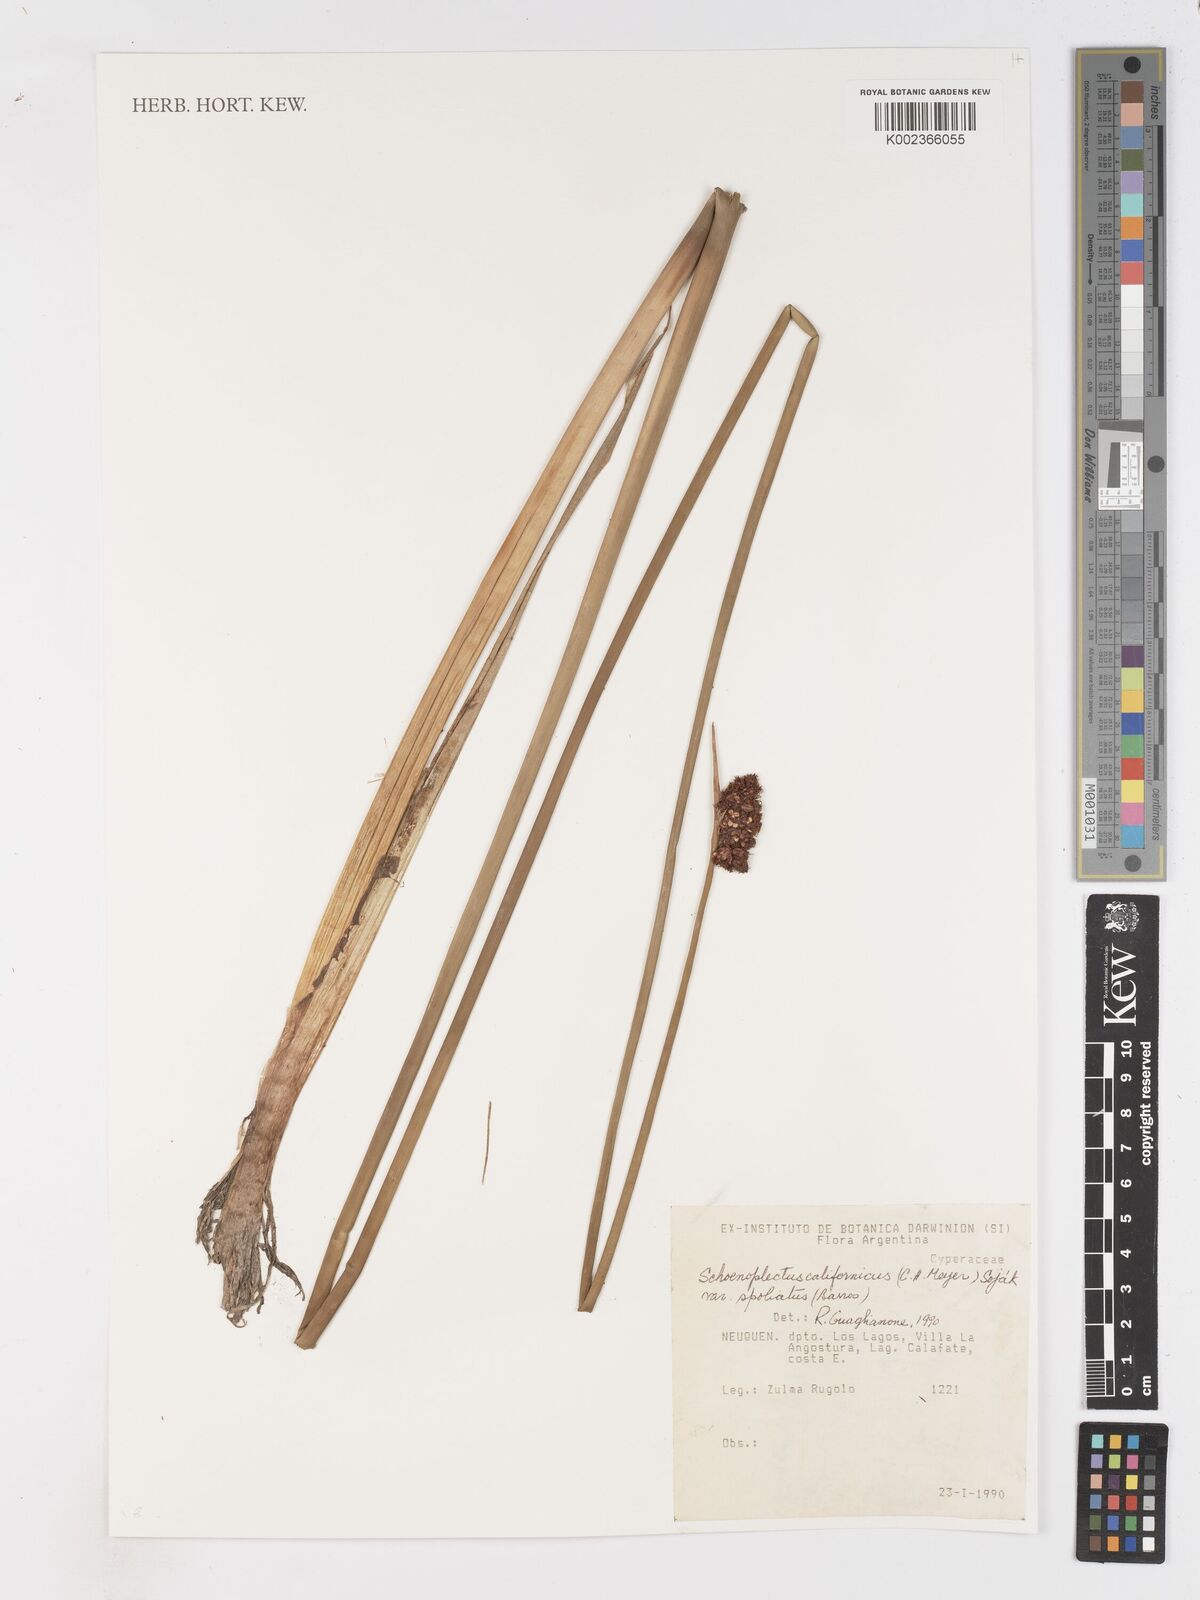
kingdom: Plantae
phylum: Tracheophyta
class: Liliopsida
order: Poales
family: Cyperaceae
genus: Schoenoplectus
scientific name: Schoenoplectus californicus
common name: California bulrush
